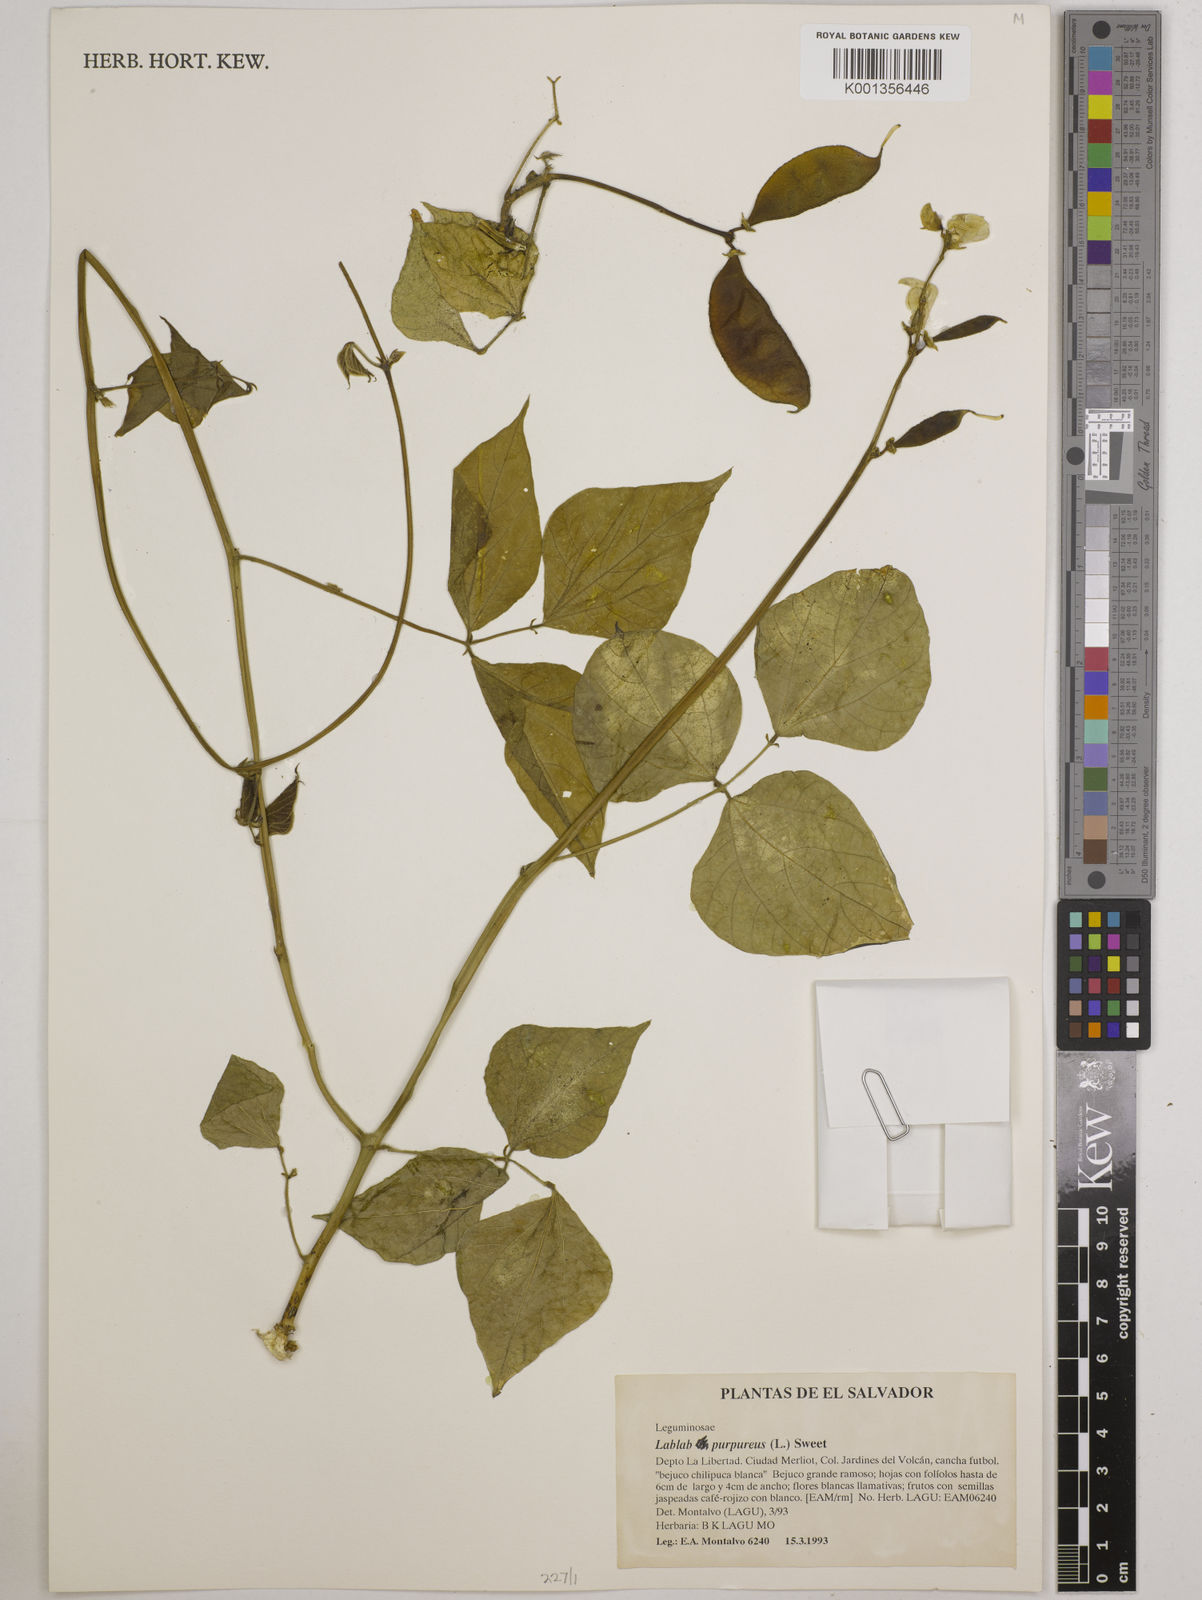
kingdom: Plantae
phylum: Tracheophyta
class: Magnoliopsida
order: Fabales
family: Fabaceae
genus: Lablab
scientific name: Lablab purpureus
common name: Lablab-bean
